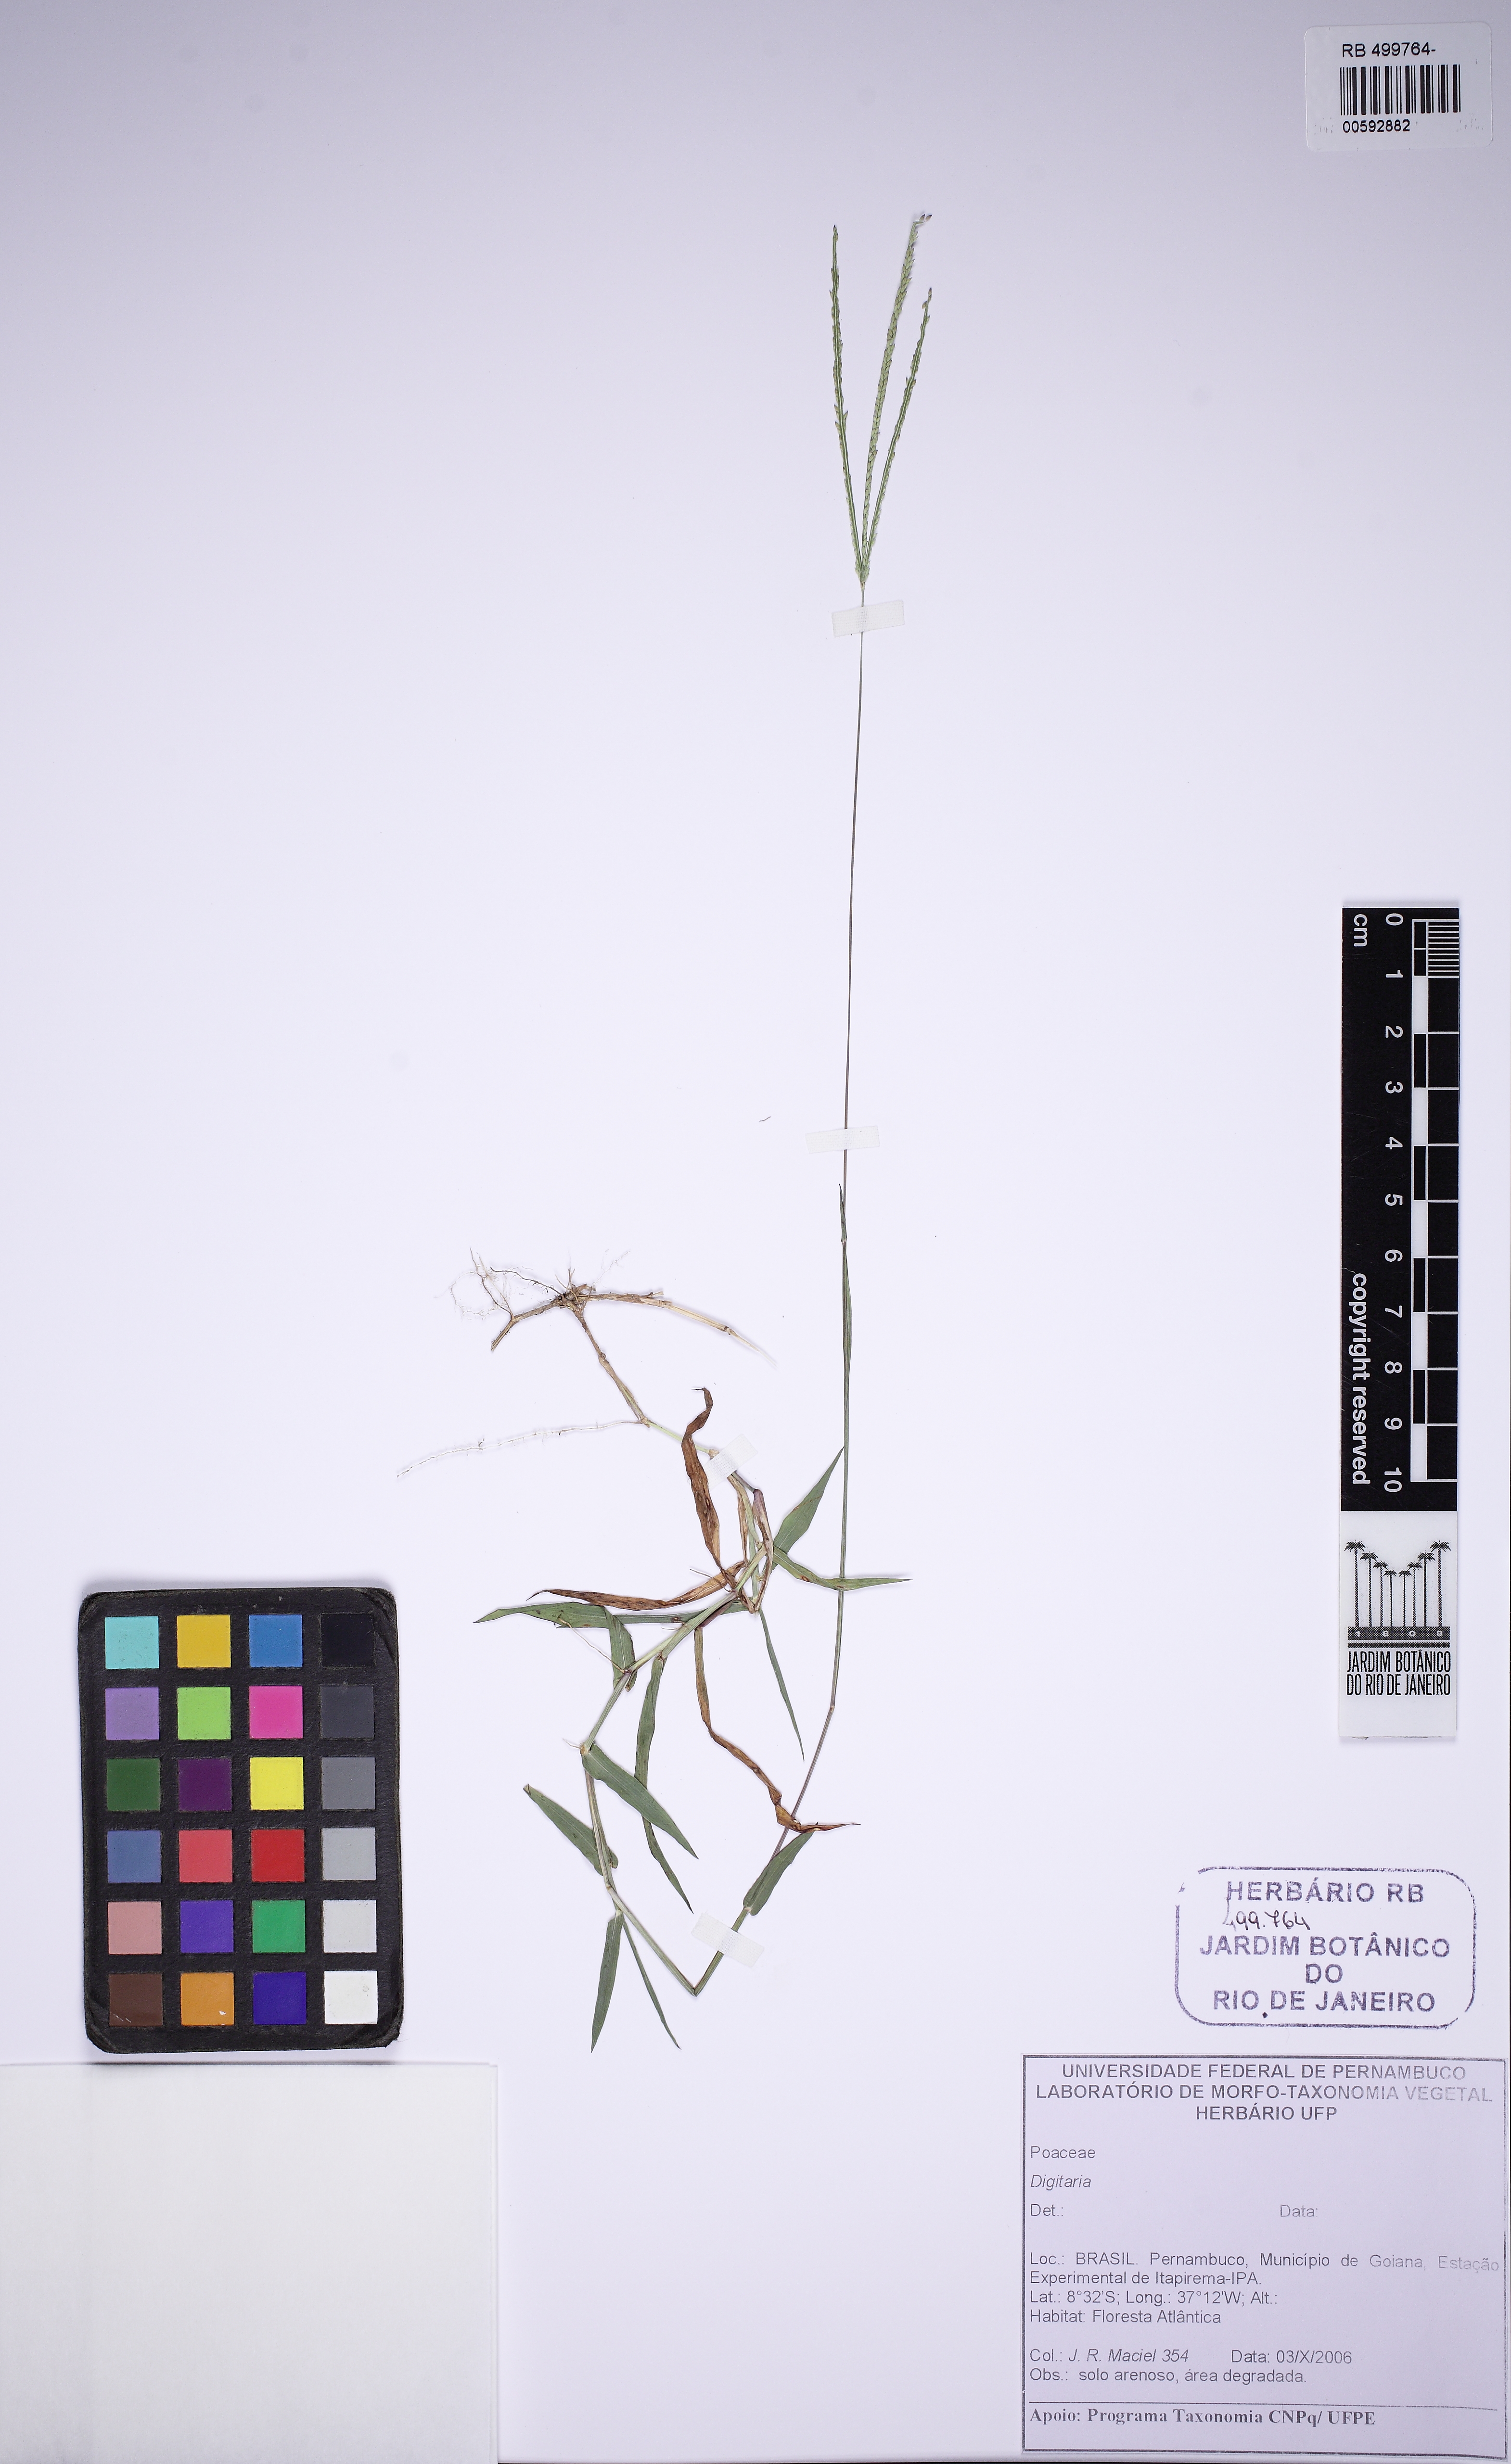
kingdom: Plantae
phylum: Tracheophyta
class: Liliopsida
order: Poales
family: Poaceae
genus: Digitaria
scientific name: Digitaria
